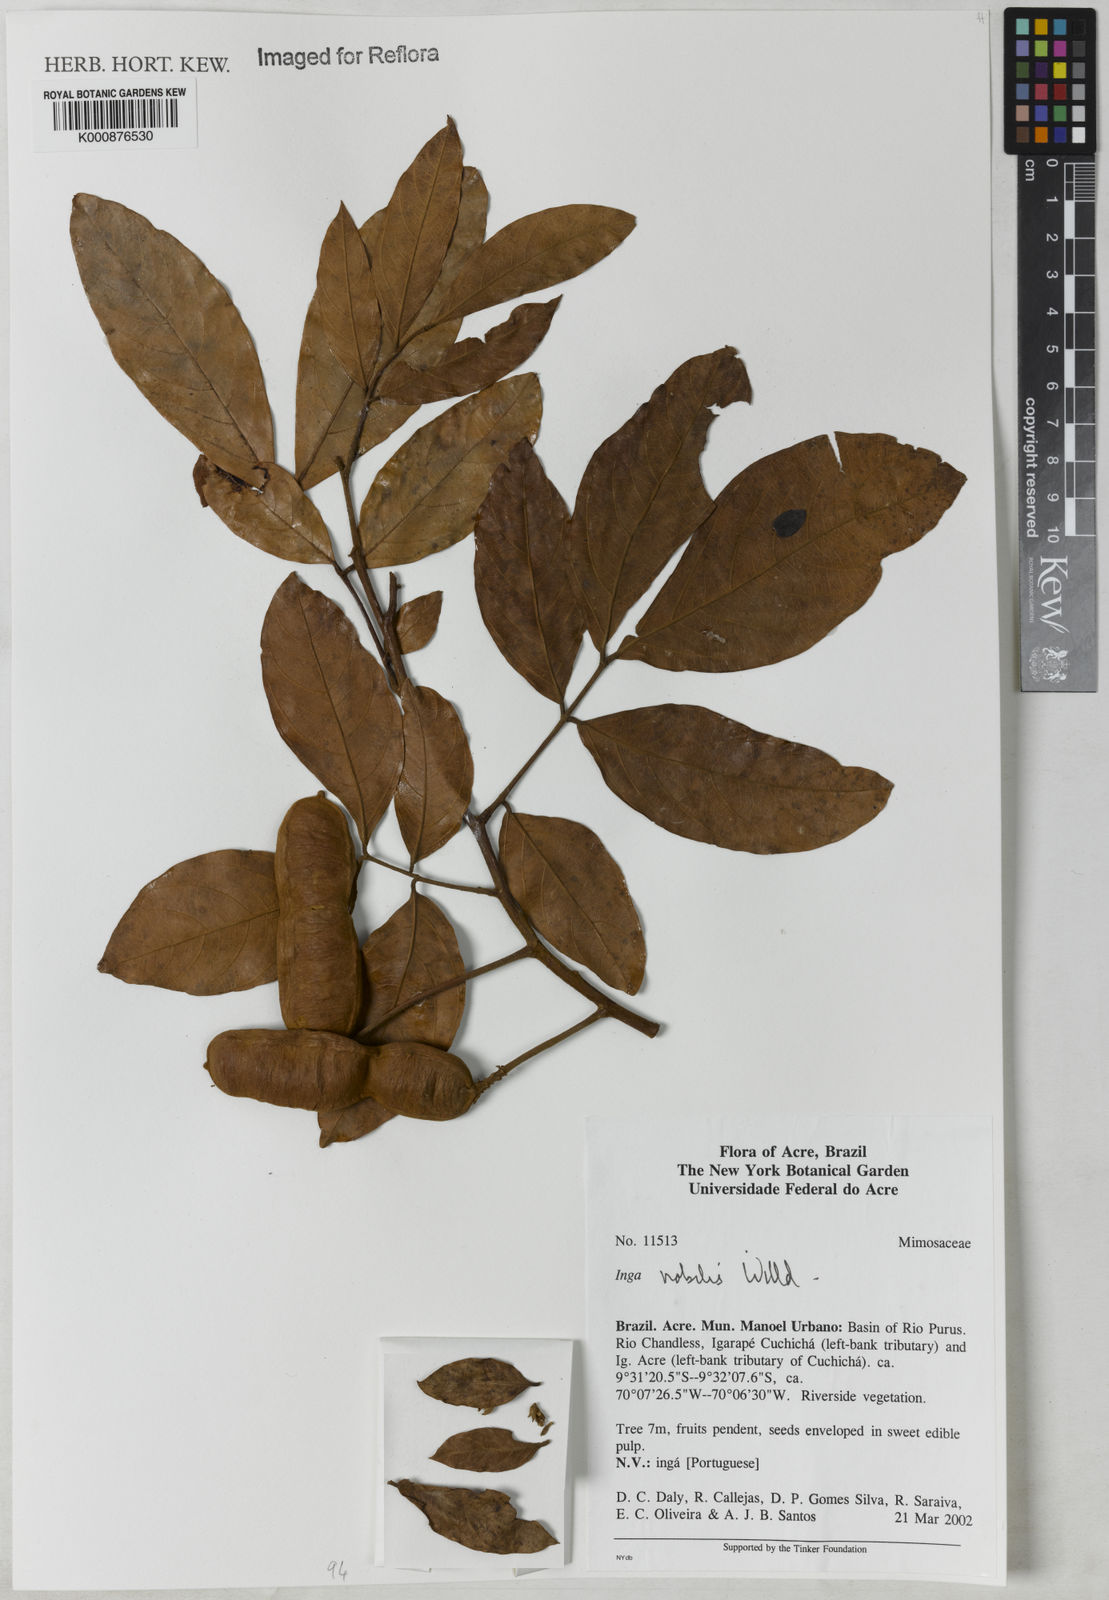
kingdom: Plantae
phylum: Tracheophyta
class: Magnoliopsida
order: Fabales
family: Fabaceae
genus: Inga
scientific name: Inga nobilis
